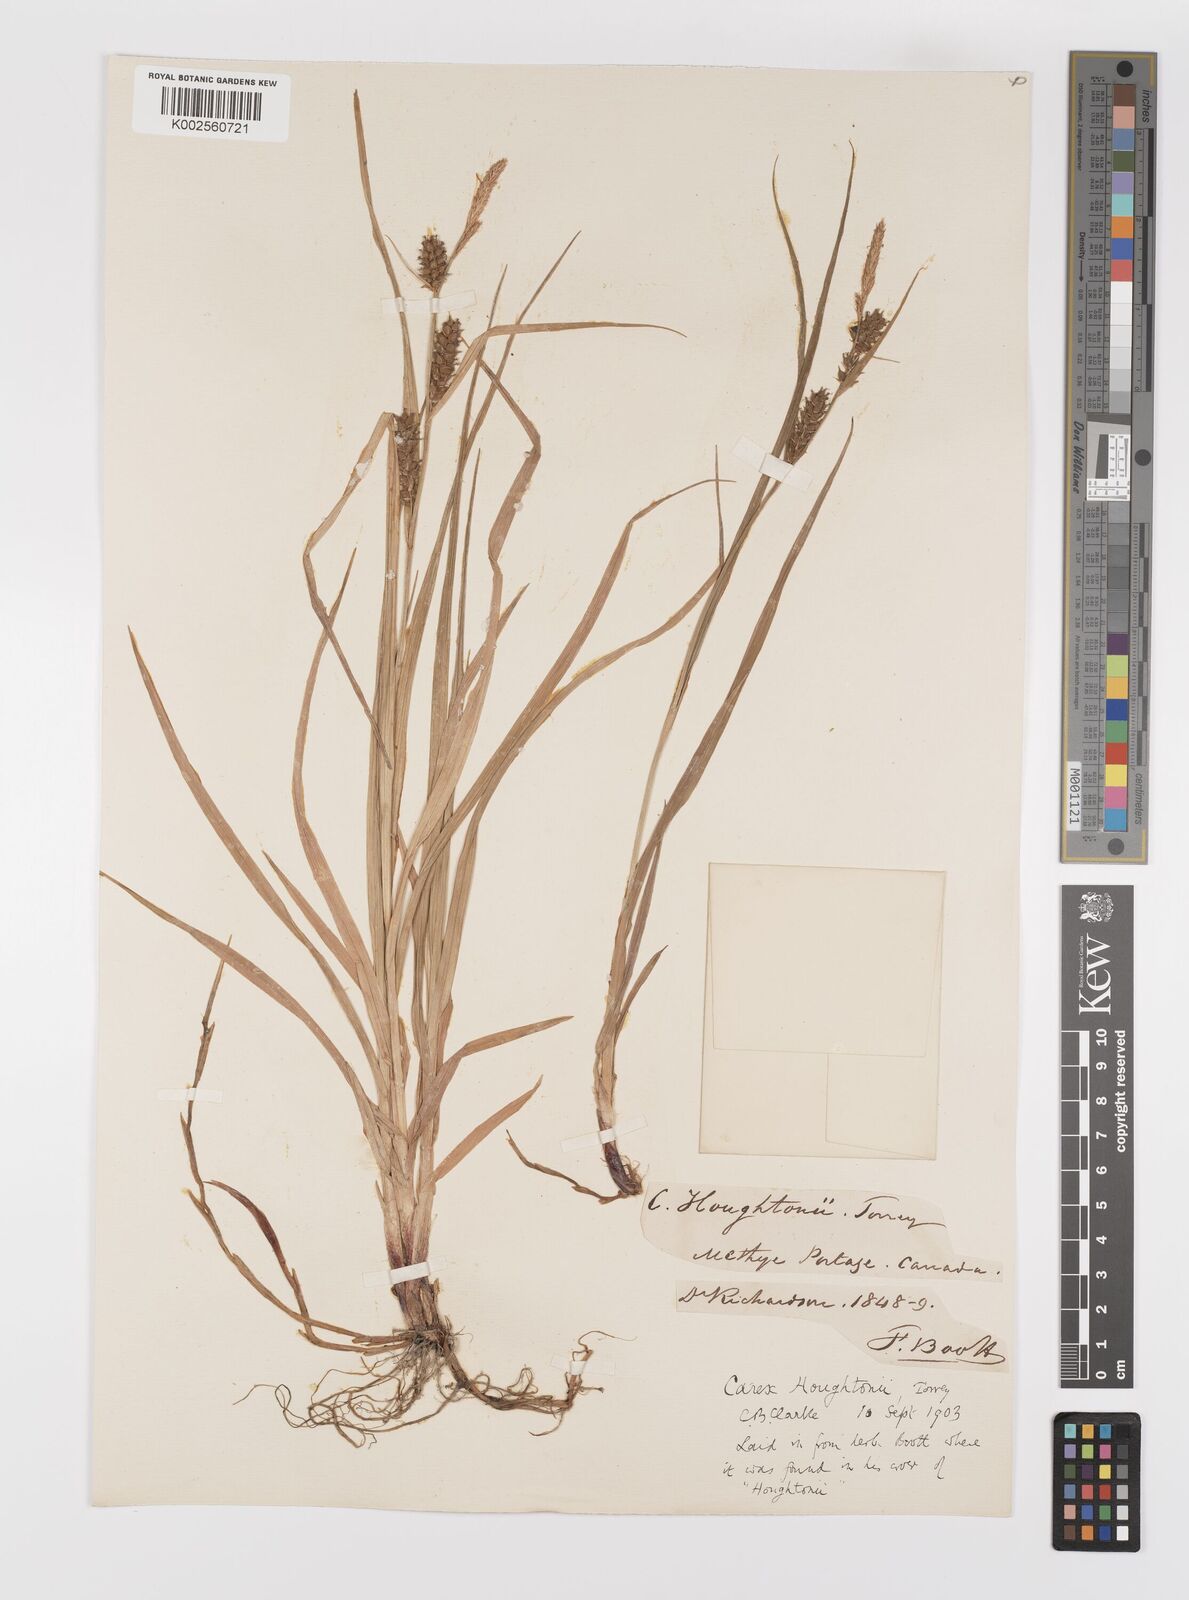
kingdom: Plantae
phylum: Tracheophyta
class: Liliopsida
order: Poales
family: Cyperaceae
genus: Carex
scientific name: Carex houghtoniana
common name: Houghton's sedge
